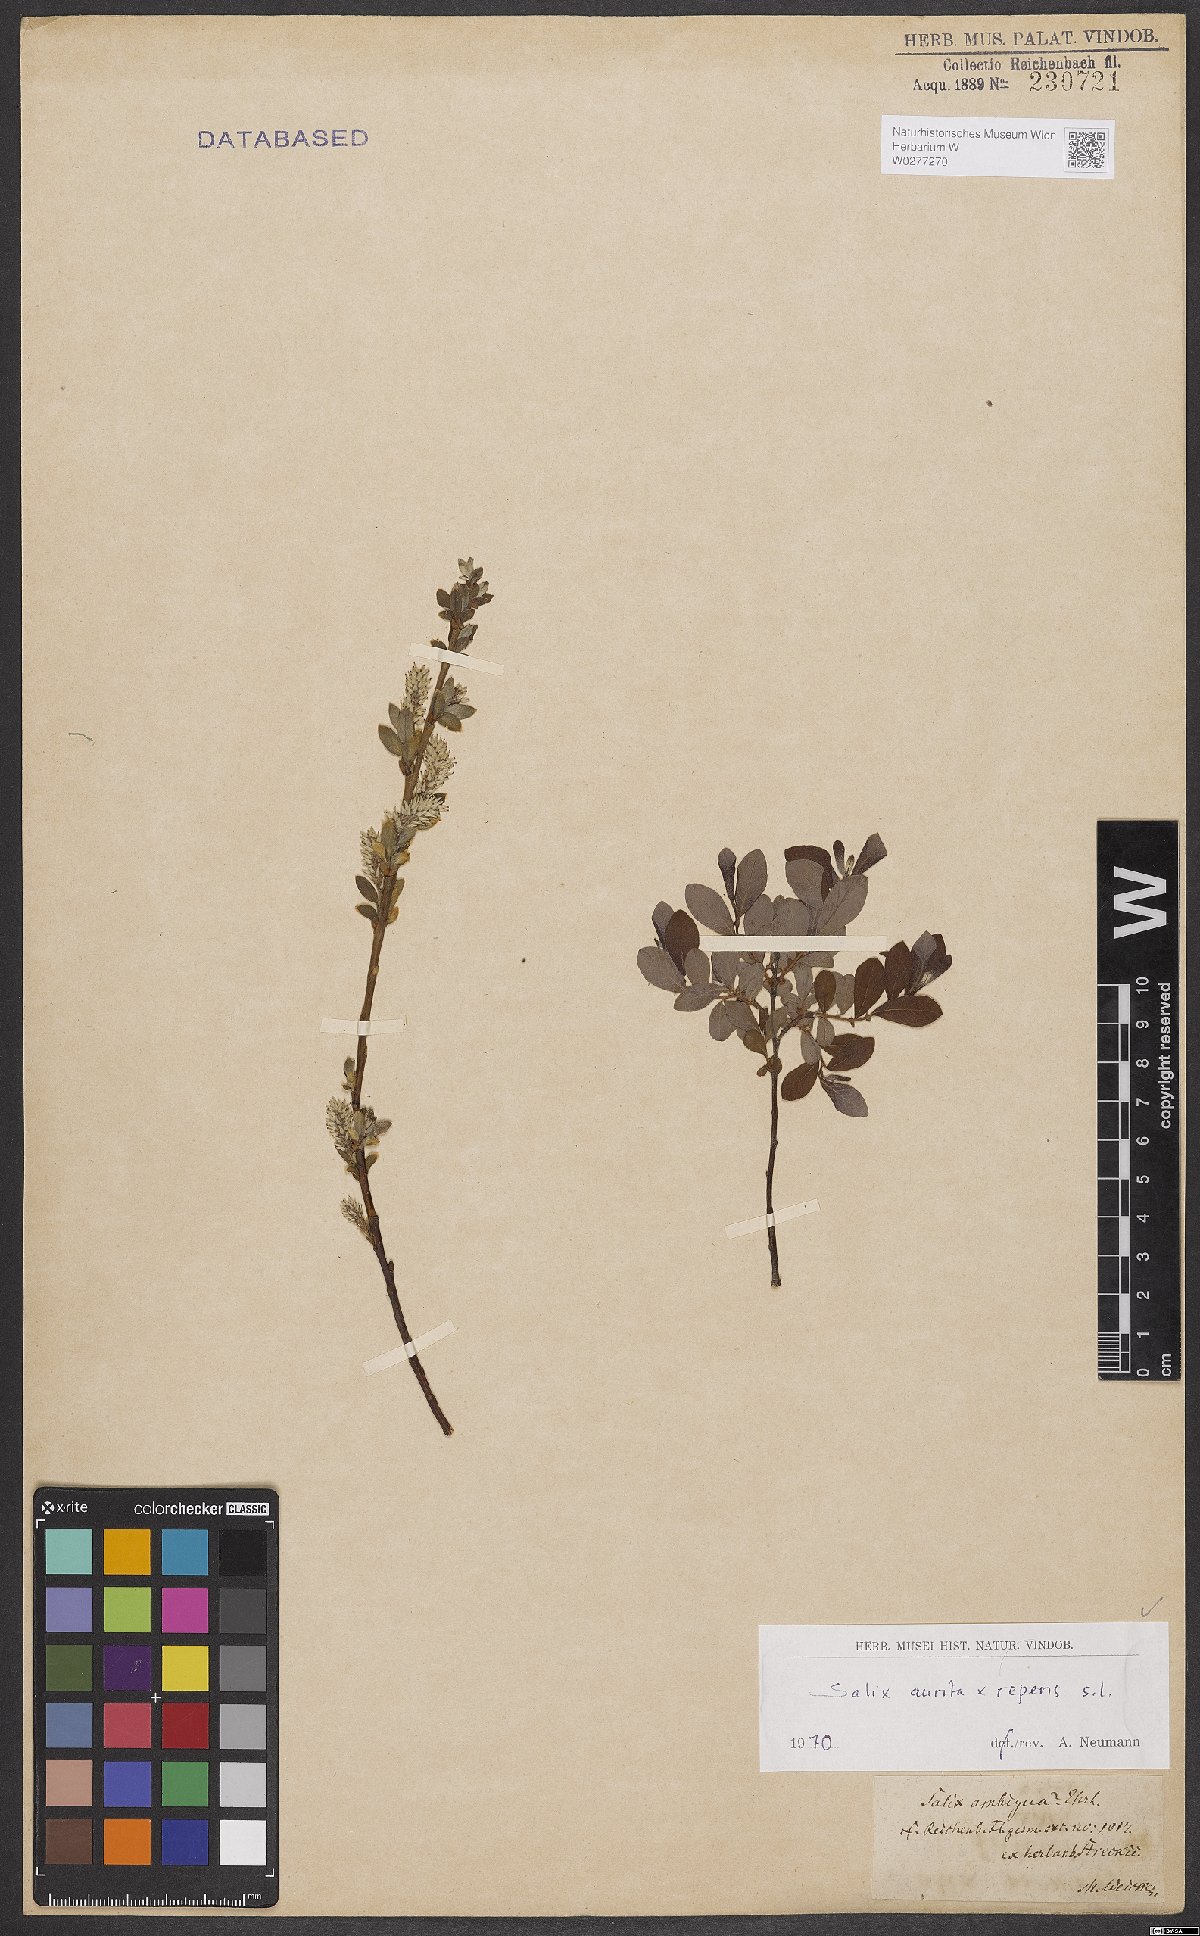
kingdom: Plantae
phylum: Tracheophyta
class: Magnoliopsida
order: Malpighiales
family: Salicaceae
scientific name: Salicaceae
